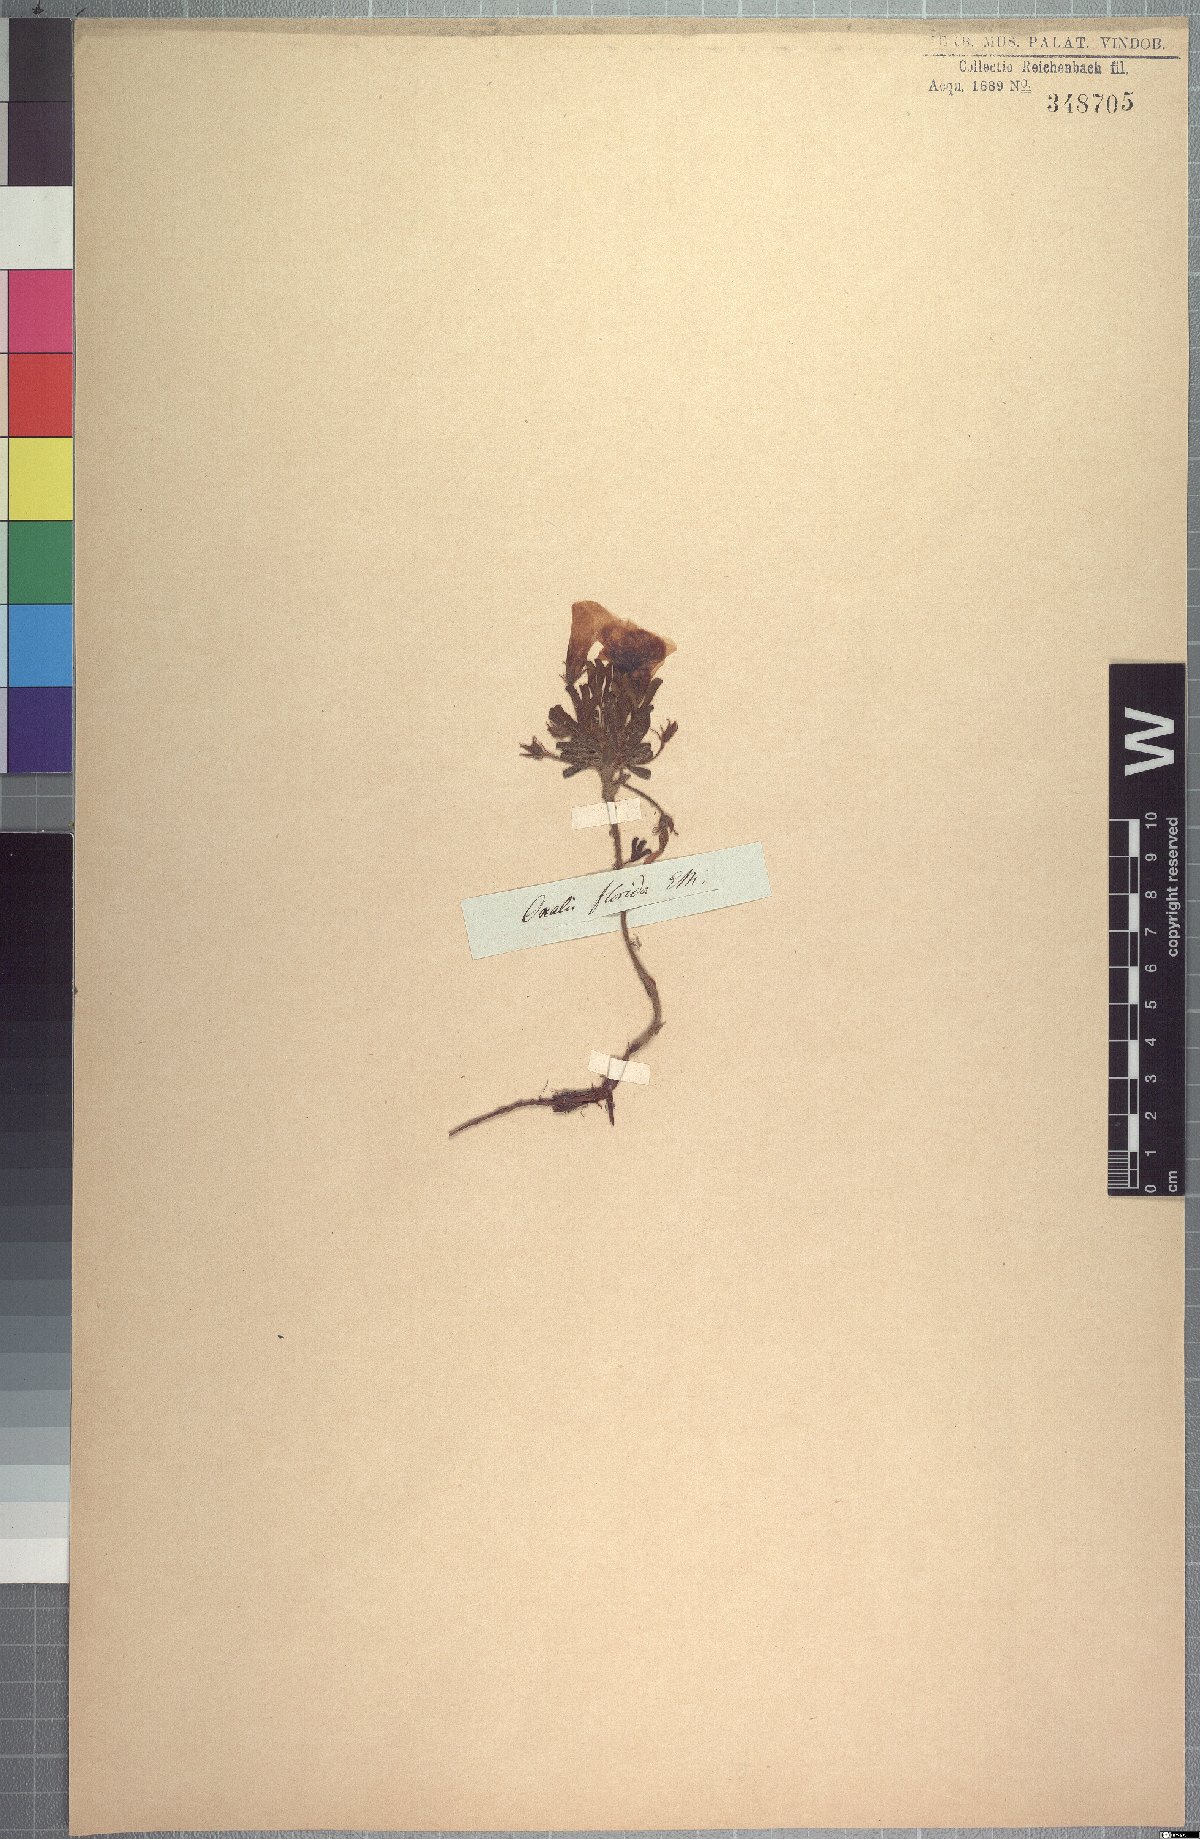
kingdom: Plantae
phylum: Tracheophyta
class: Magnoliopsida
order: Oxalidales
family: Oxalidaceae
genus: Oxalis
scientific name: Oxalis adspersa
